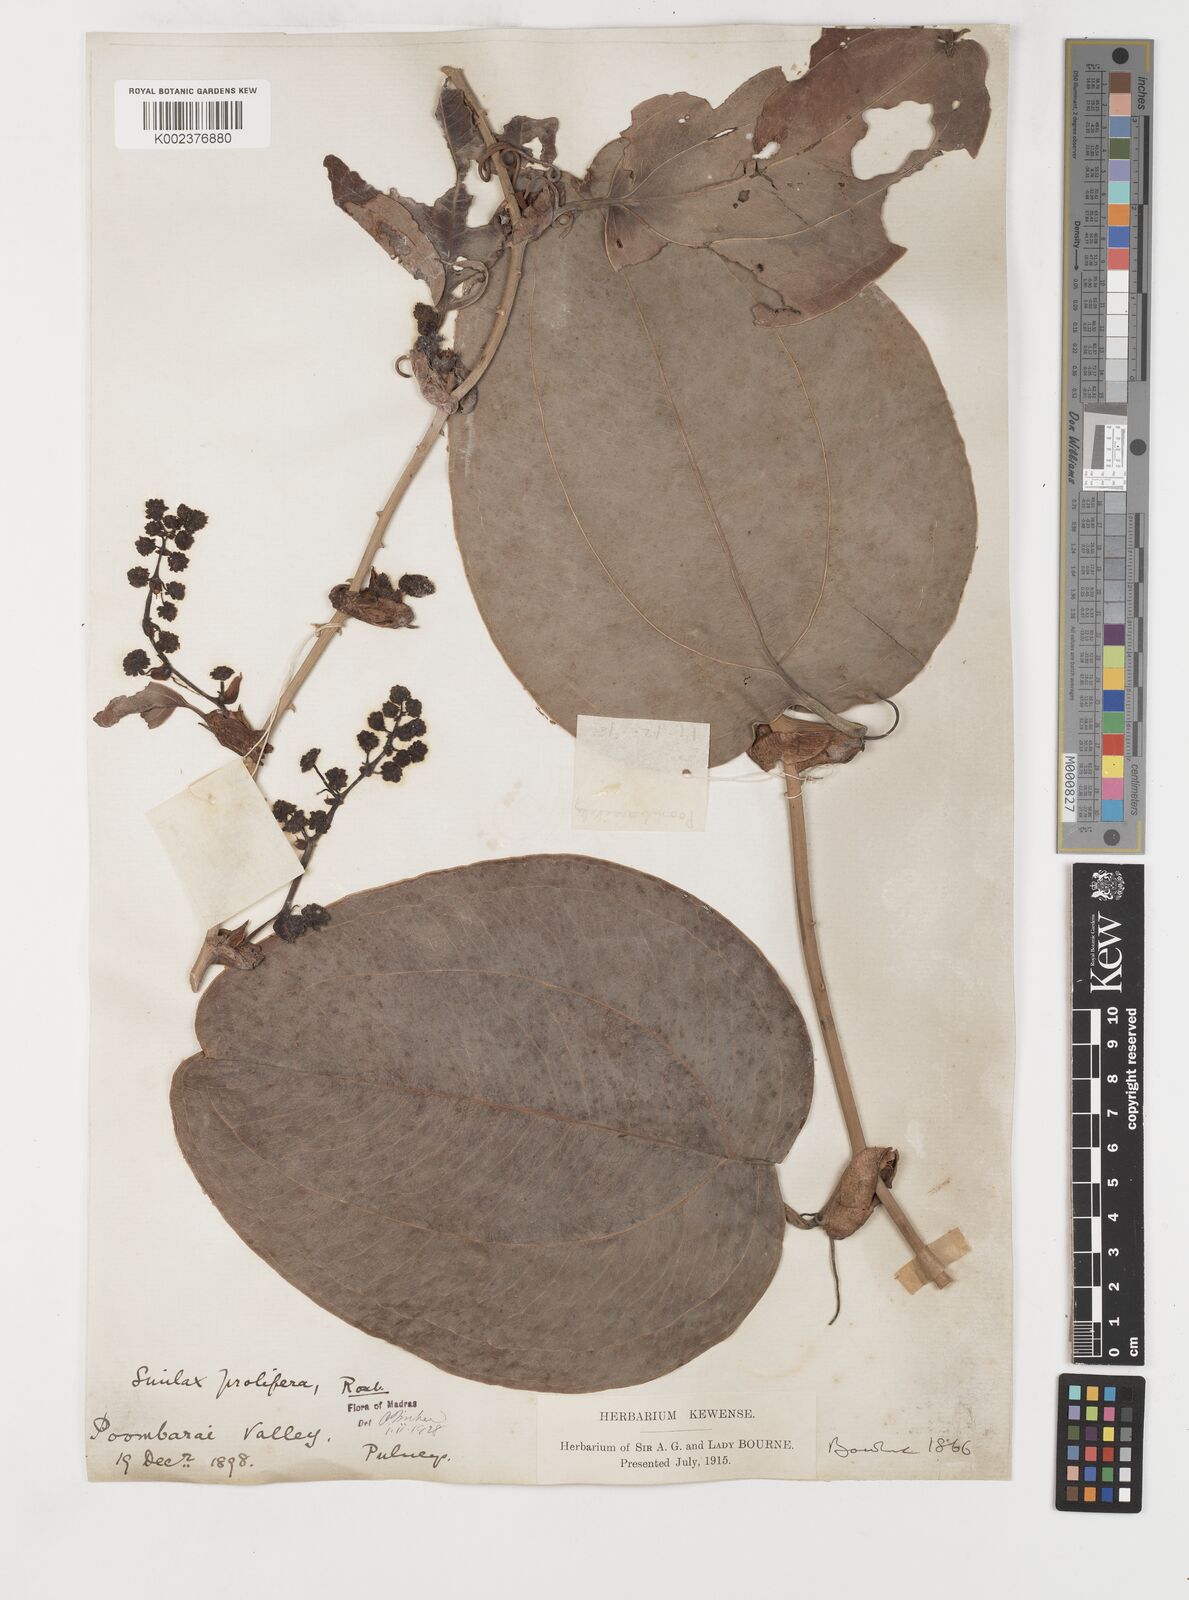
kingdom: Plantae
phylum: Tracheophyta
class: Liliopsida
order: Liliales
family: Smilacaceae
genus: Smilax
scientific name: Smilax prolifera
